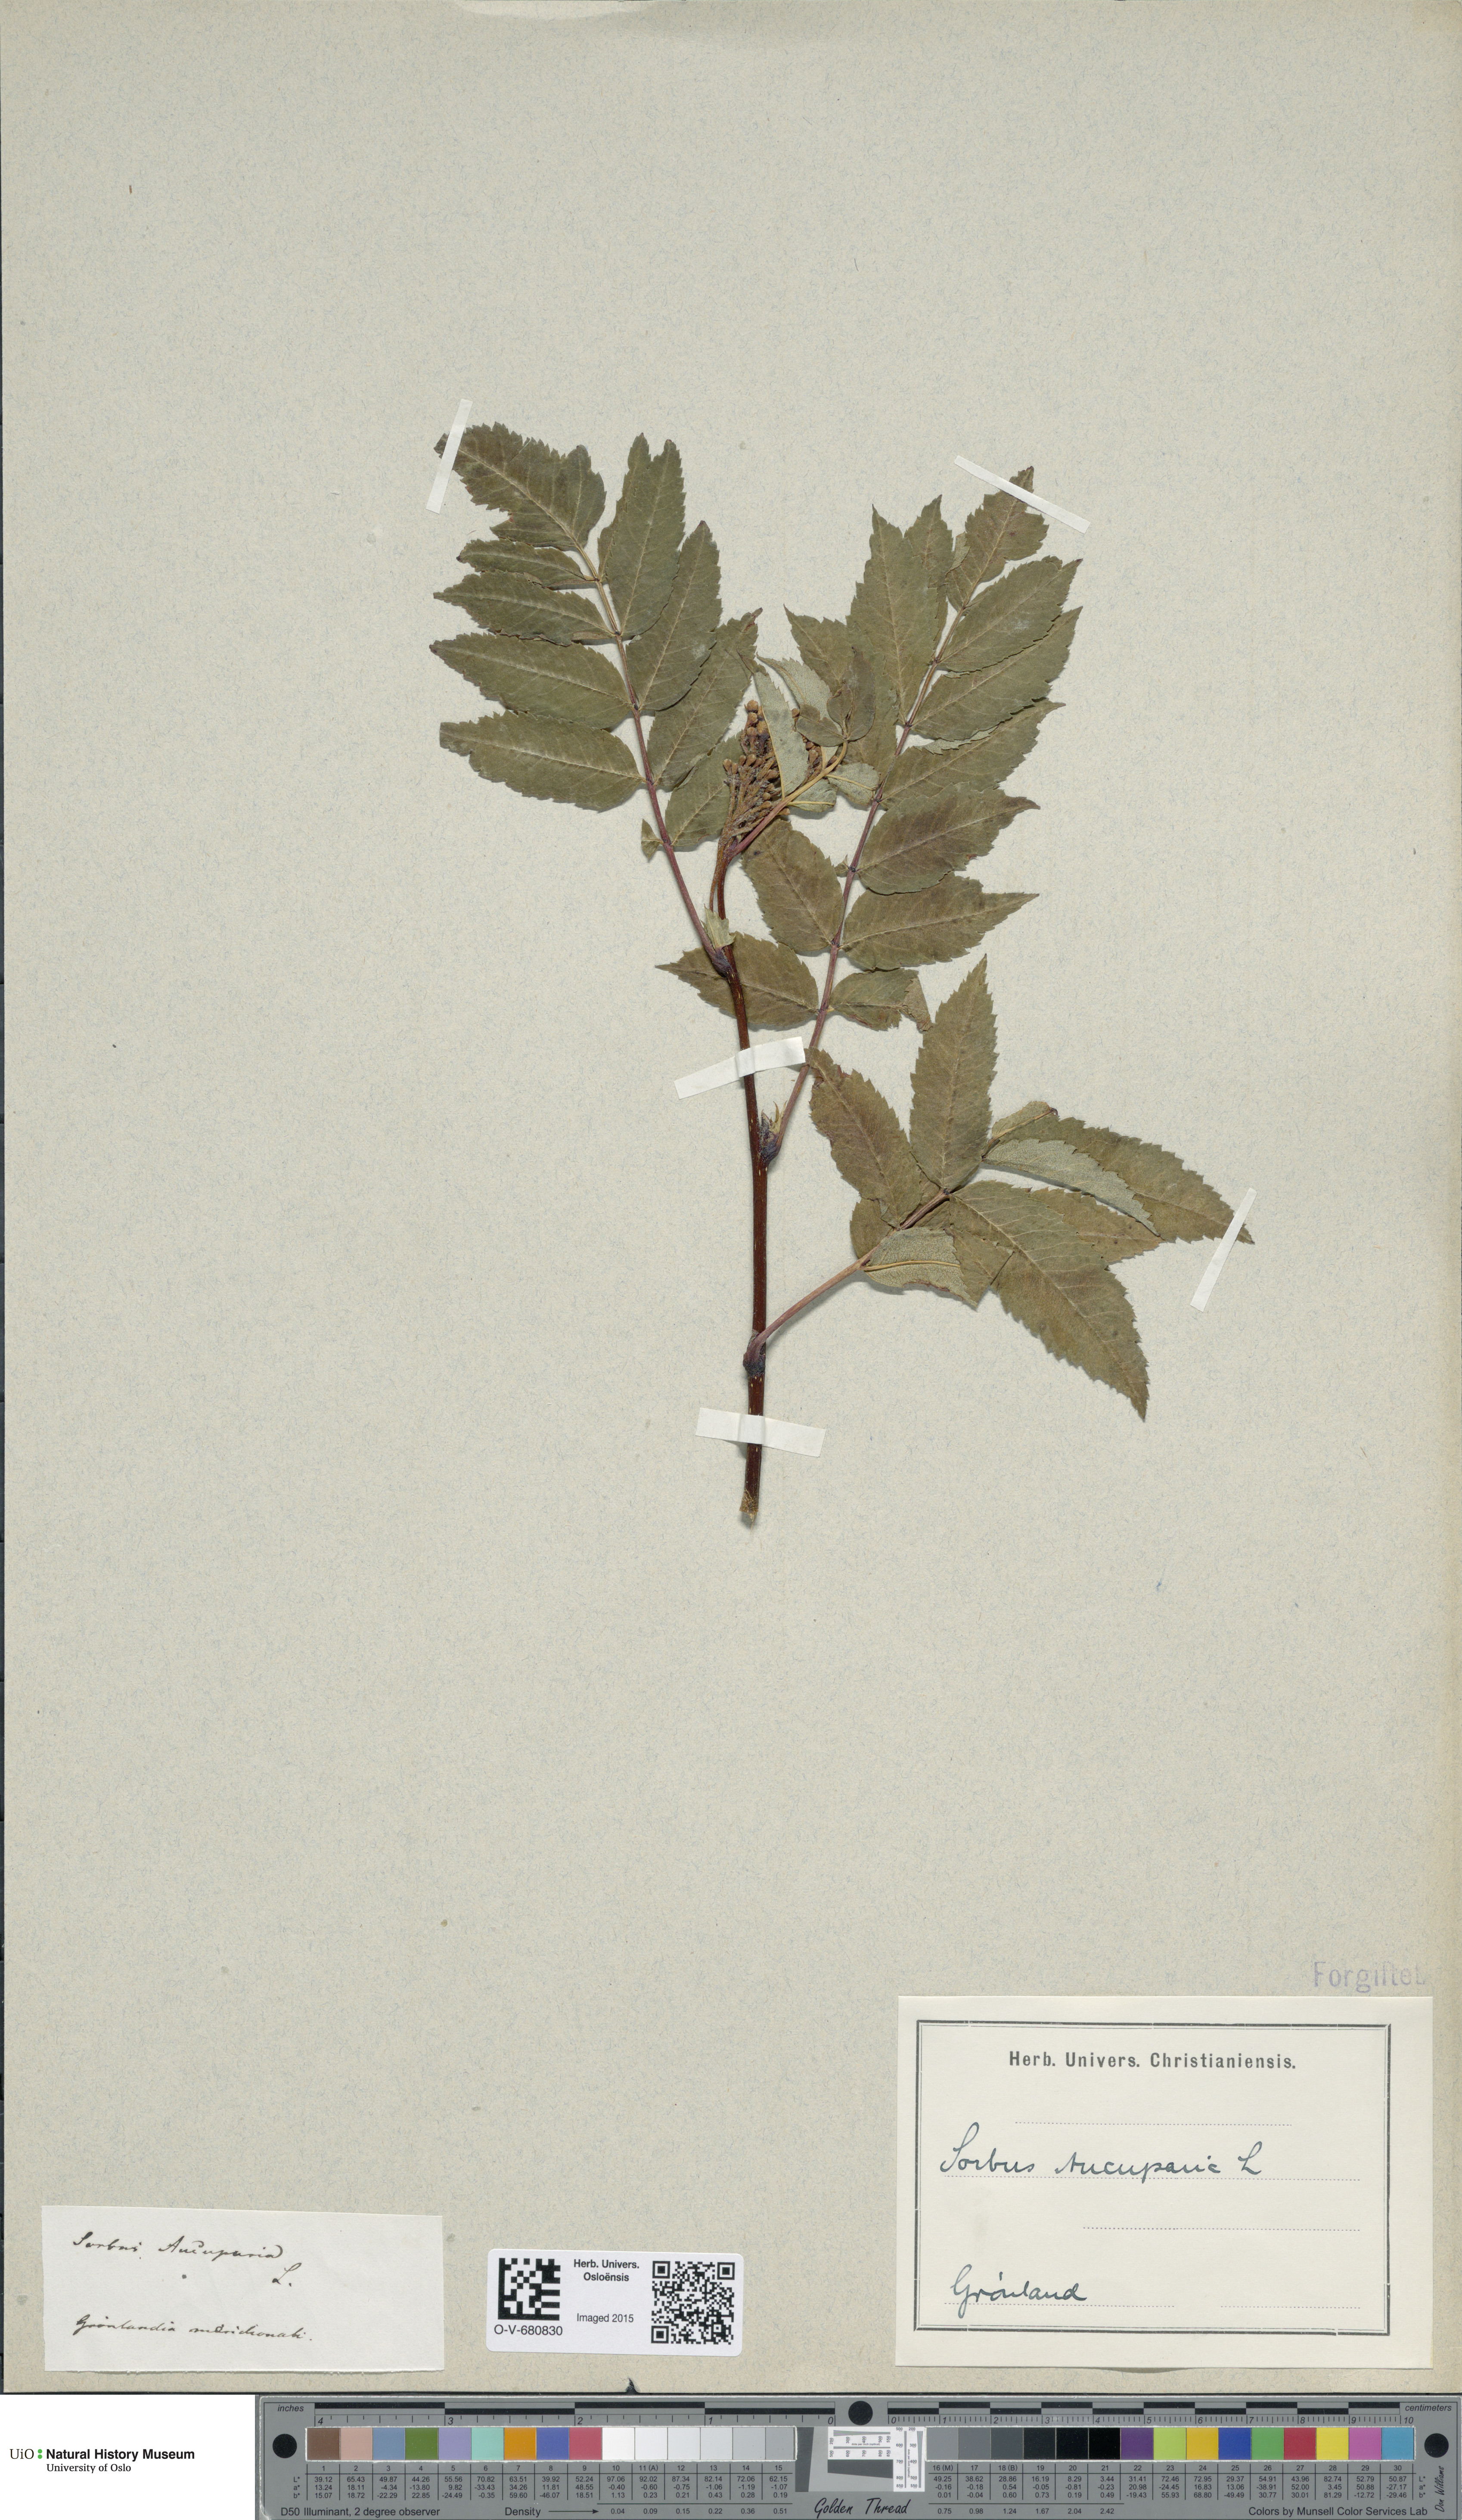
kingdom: Plantae
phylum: Tracheophyta
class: Magnoliopsida
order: Rosales
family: Rosaceae
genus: Sorbus
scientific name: Sorbus aucuparia
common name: Rowan
